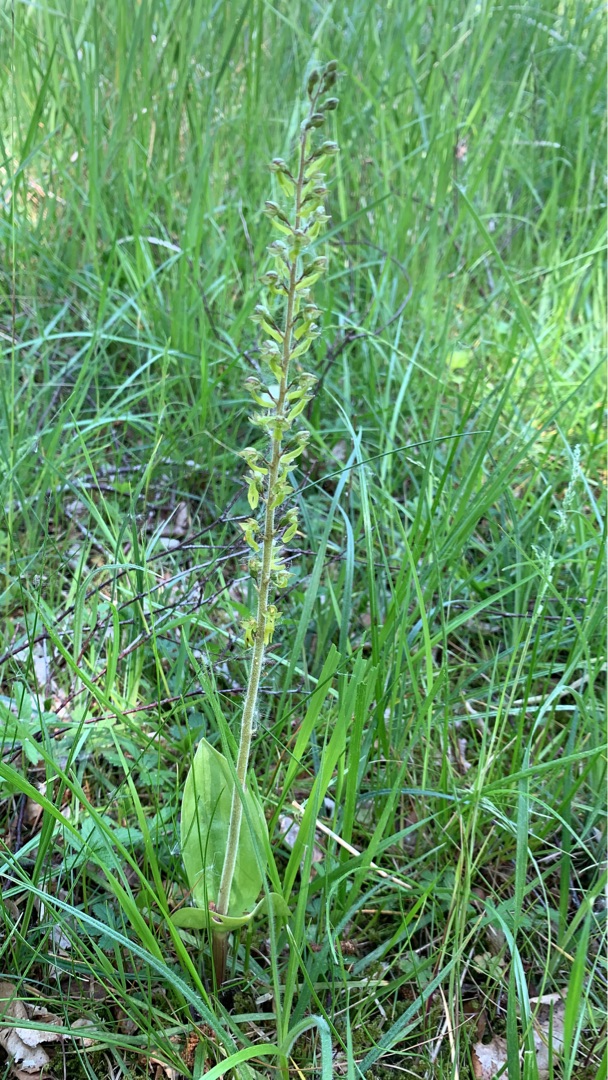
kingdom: Plantae
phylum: Tracheophyta
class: Liliopsida
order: Asparagales
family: Orchidaceae
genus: Neottia
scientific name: Neottia ovata
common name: Ægbladet fliglæbe
